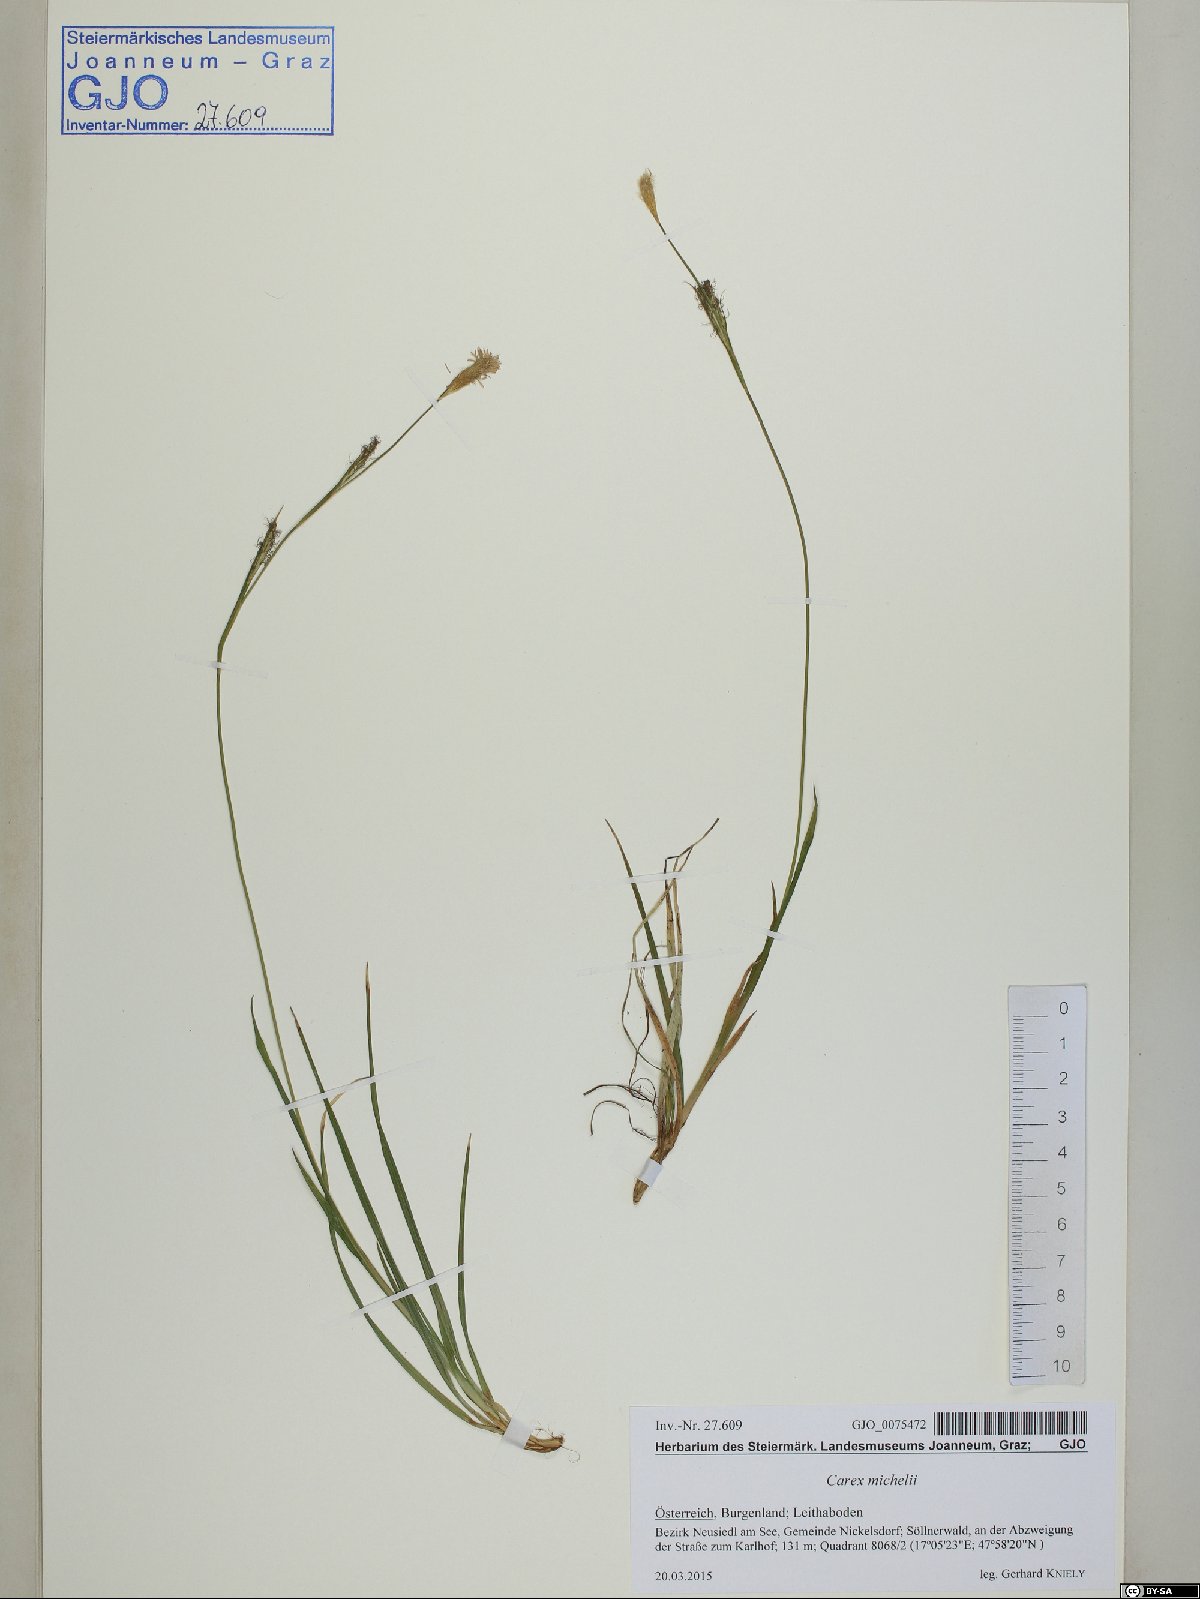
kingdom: Plantae
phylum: Tracheophyta
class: Liliopsida
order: Poales
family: Cyperaceae
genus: Carex
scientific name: Carex michelii
